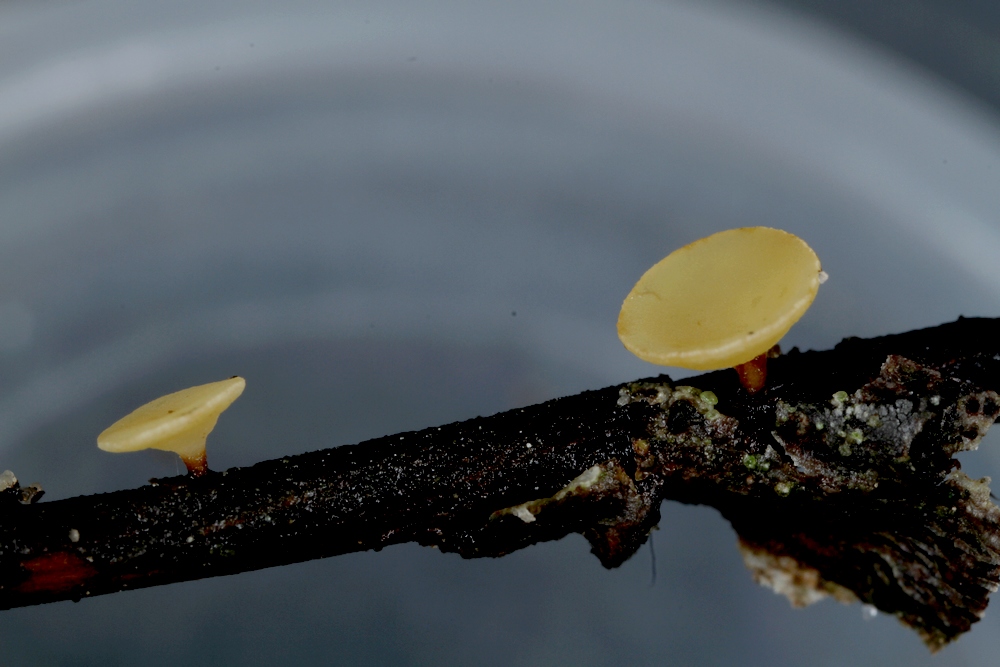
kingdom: Fungi
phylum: Ascomycota
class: Leotiomycetes
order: Helotiales
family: Helotiaceae
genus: Hymenoscyphus
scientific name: Hymenoscyphus calyculus
